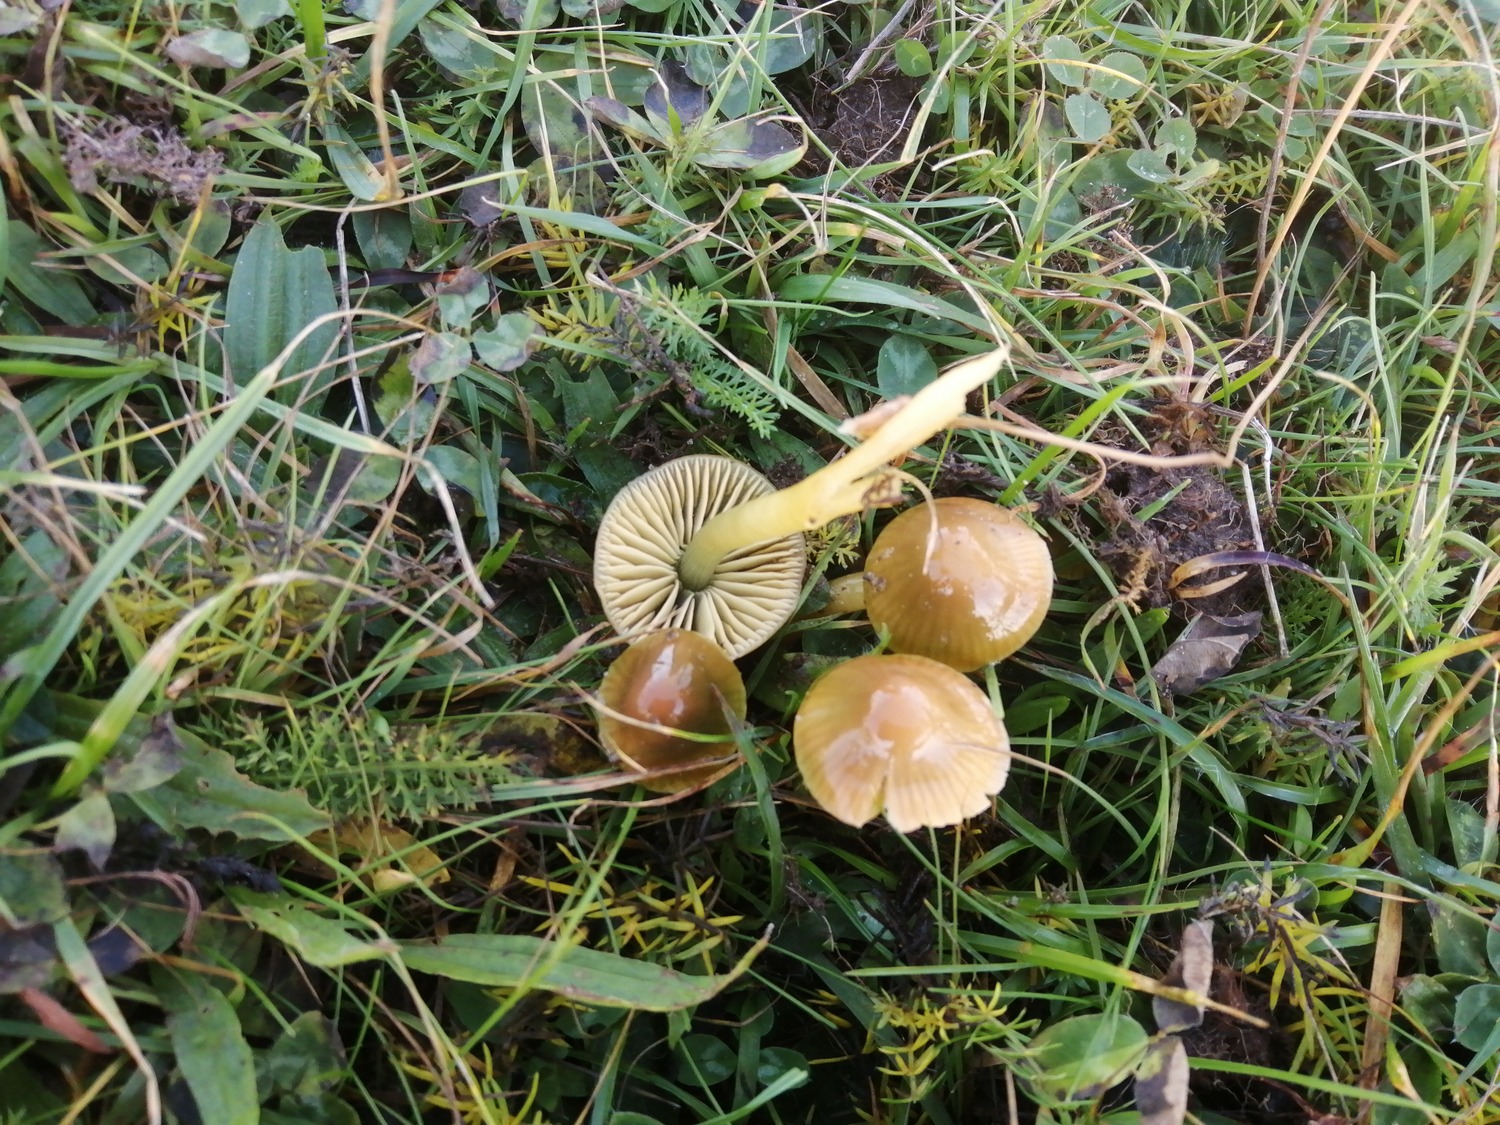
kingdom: Fungi
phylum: Basidiomycota
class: Agaricomycetes
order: Agaricales
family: Hygrophoraceae
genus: Gliophorus
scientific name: Gliophorus psittacinus
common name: papegøje-vokshat
